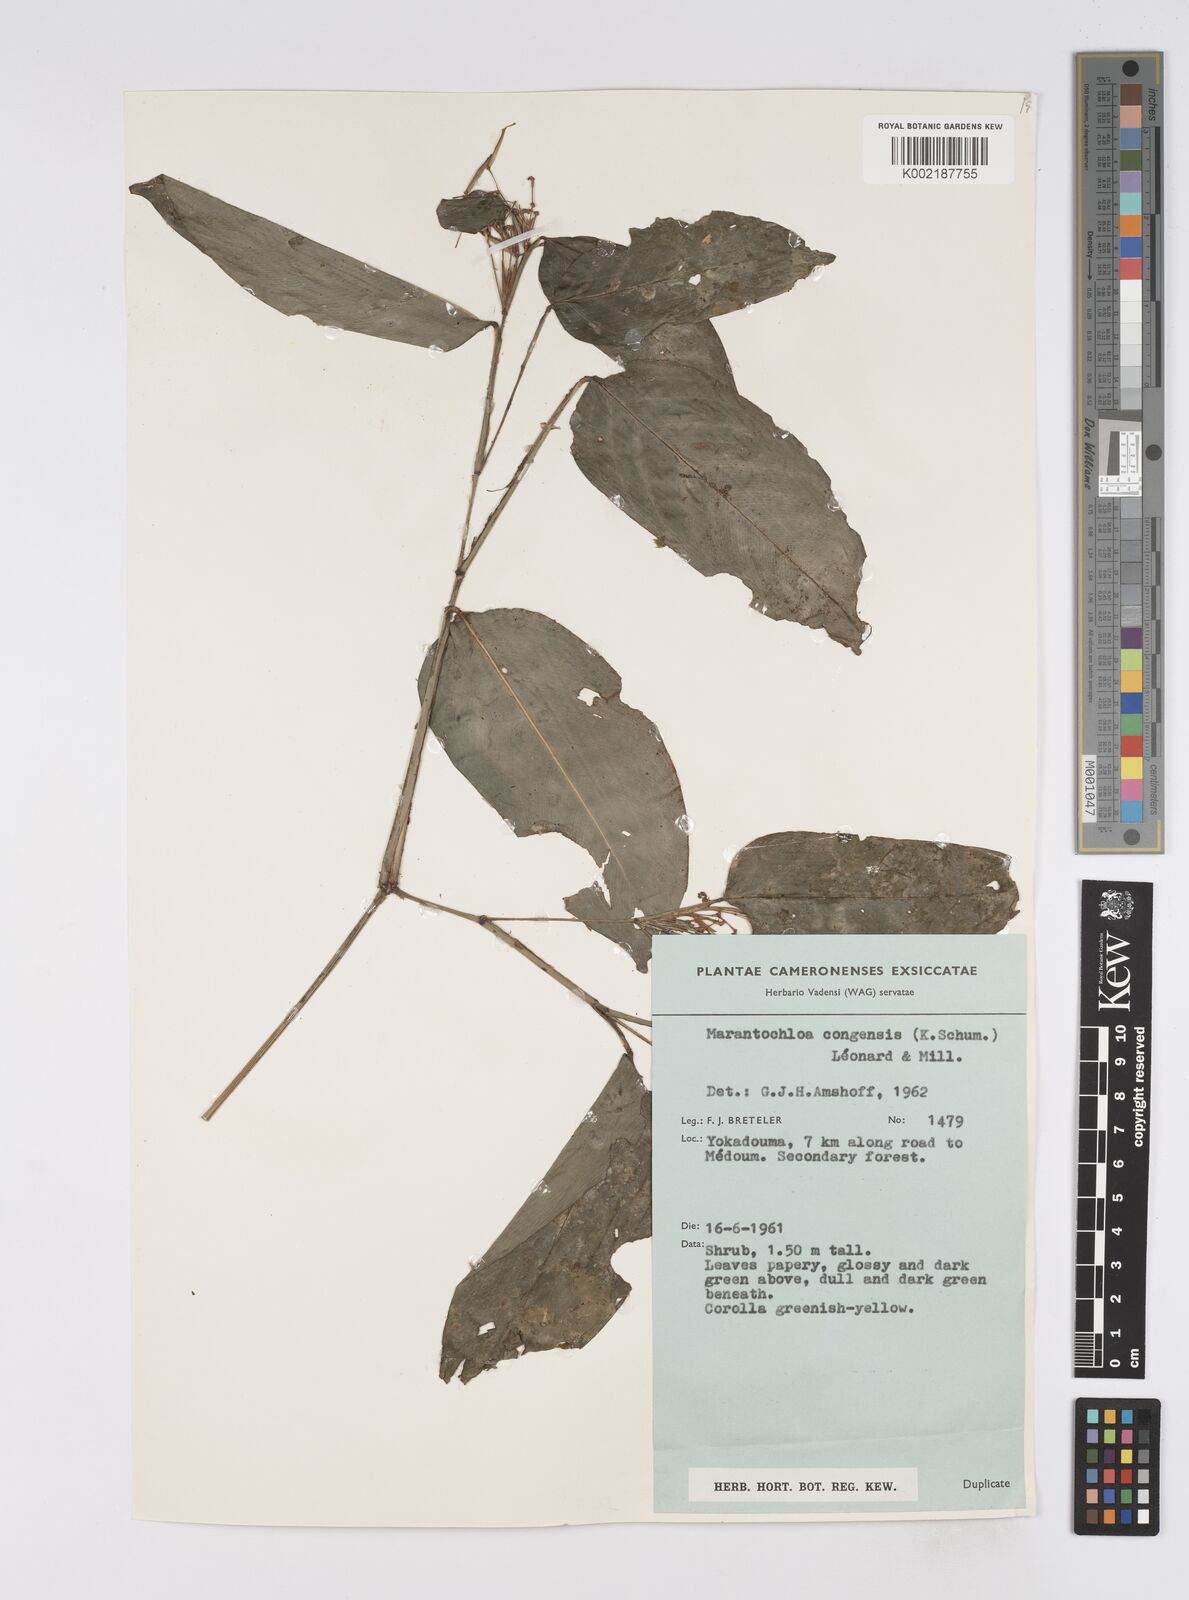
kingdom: Plantae
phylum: Tracheophyta
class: Liliopsida
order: Zingiberales
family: Marantaceae
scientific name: Marantaceae
